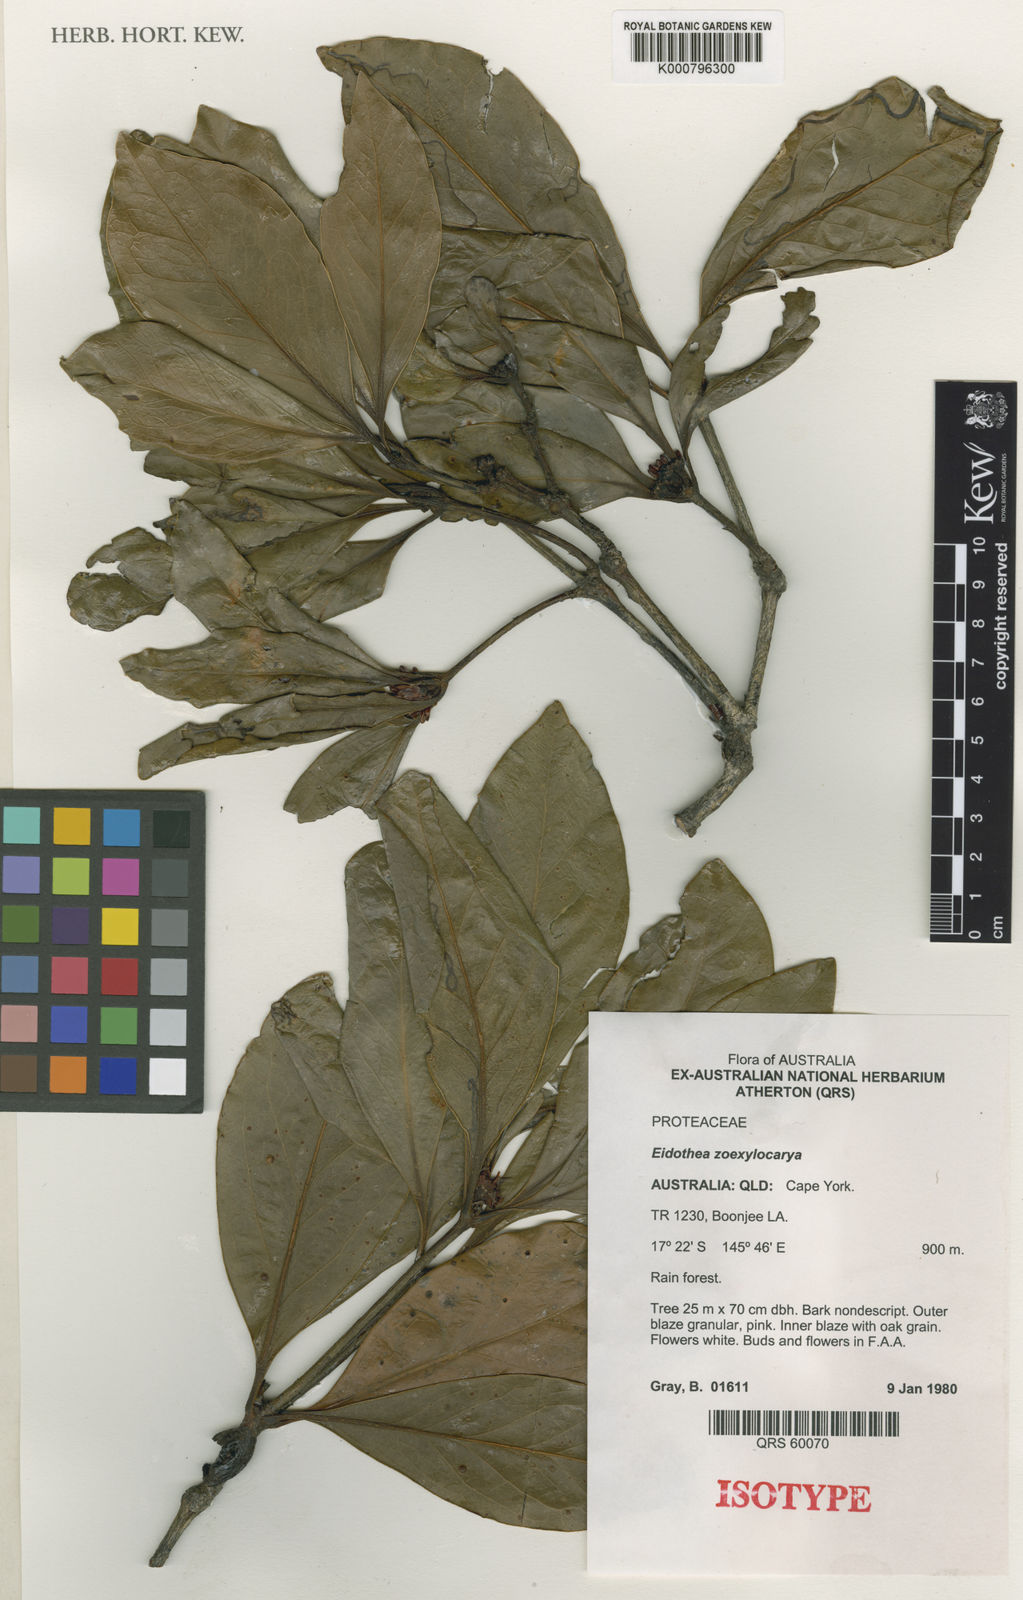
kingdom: Plantae
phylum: Tracheophyta
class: Magnoliopsida
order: Proteales
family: Proteaceae
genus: Eidothea
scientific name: Eidothea zoexylocarya
